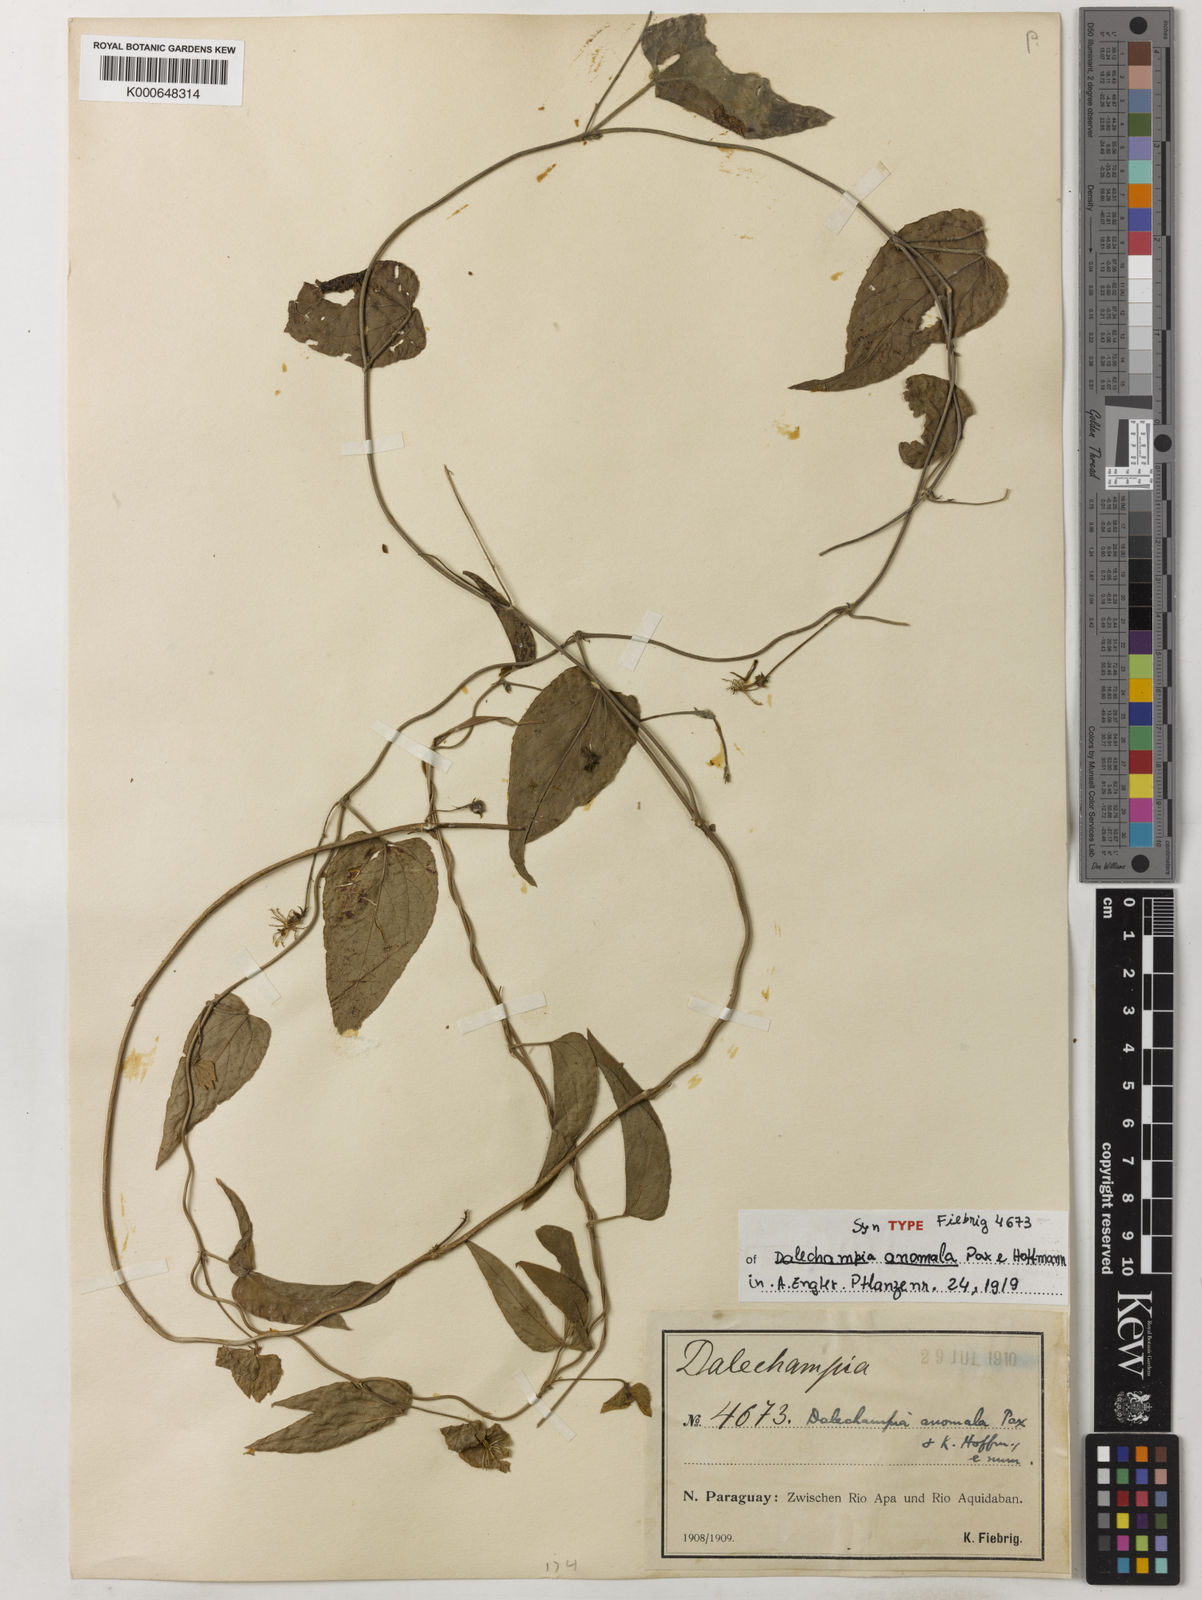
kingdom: Plantae
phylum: Tracheophyta
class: Magnoliopsida
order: Malpighiales
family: Euphorbiaceae
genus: Dalechampia
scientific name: Dalechampia anomala
